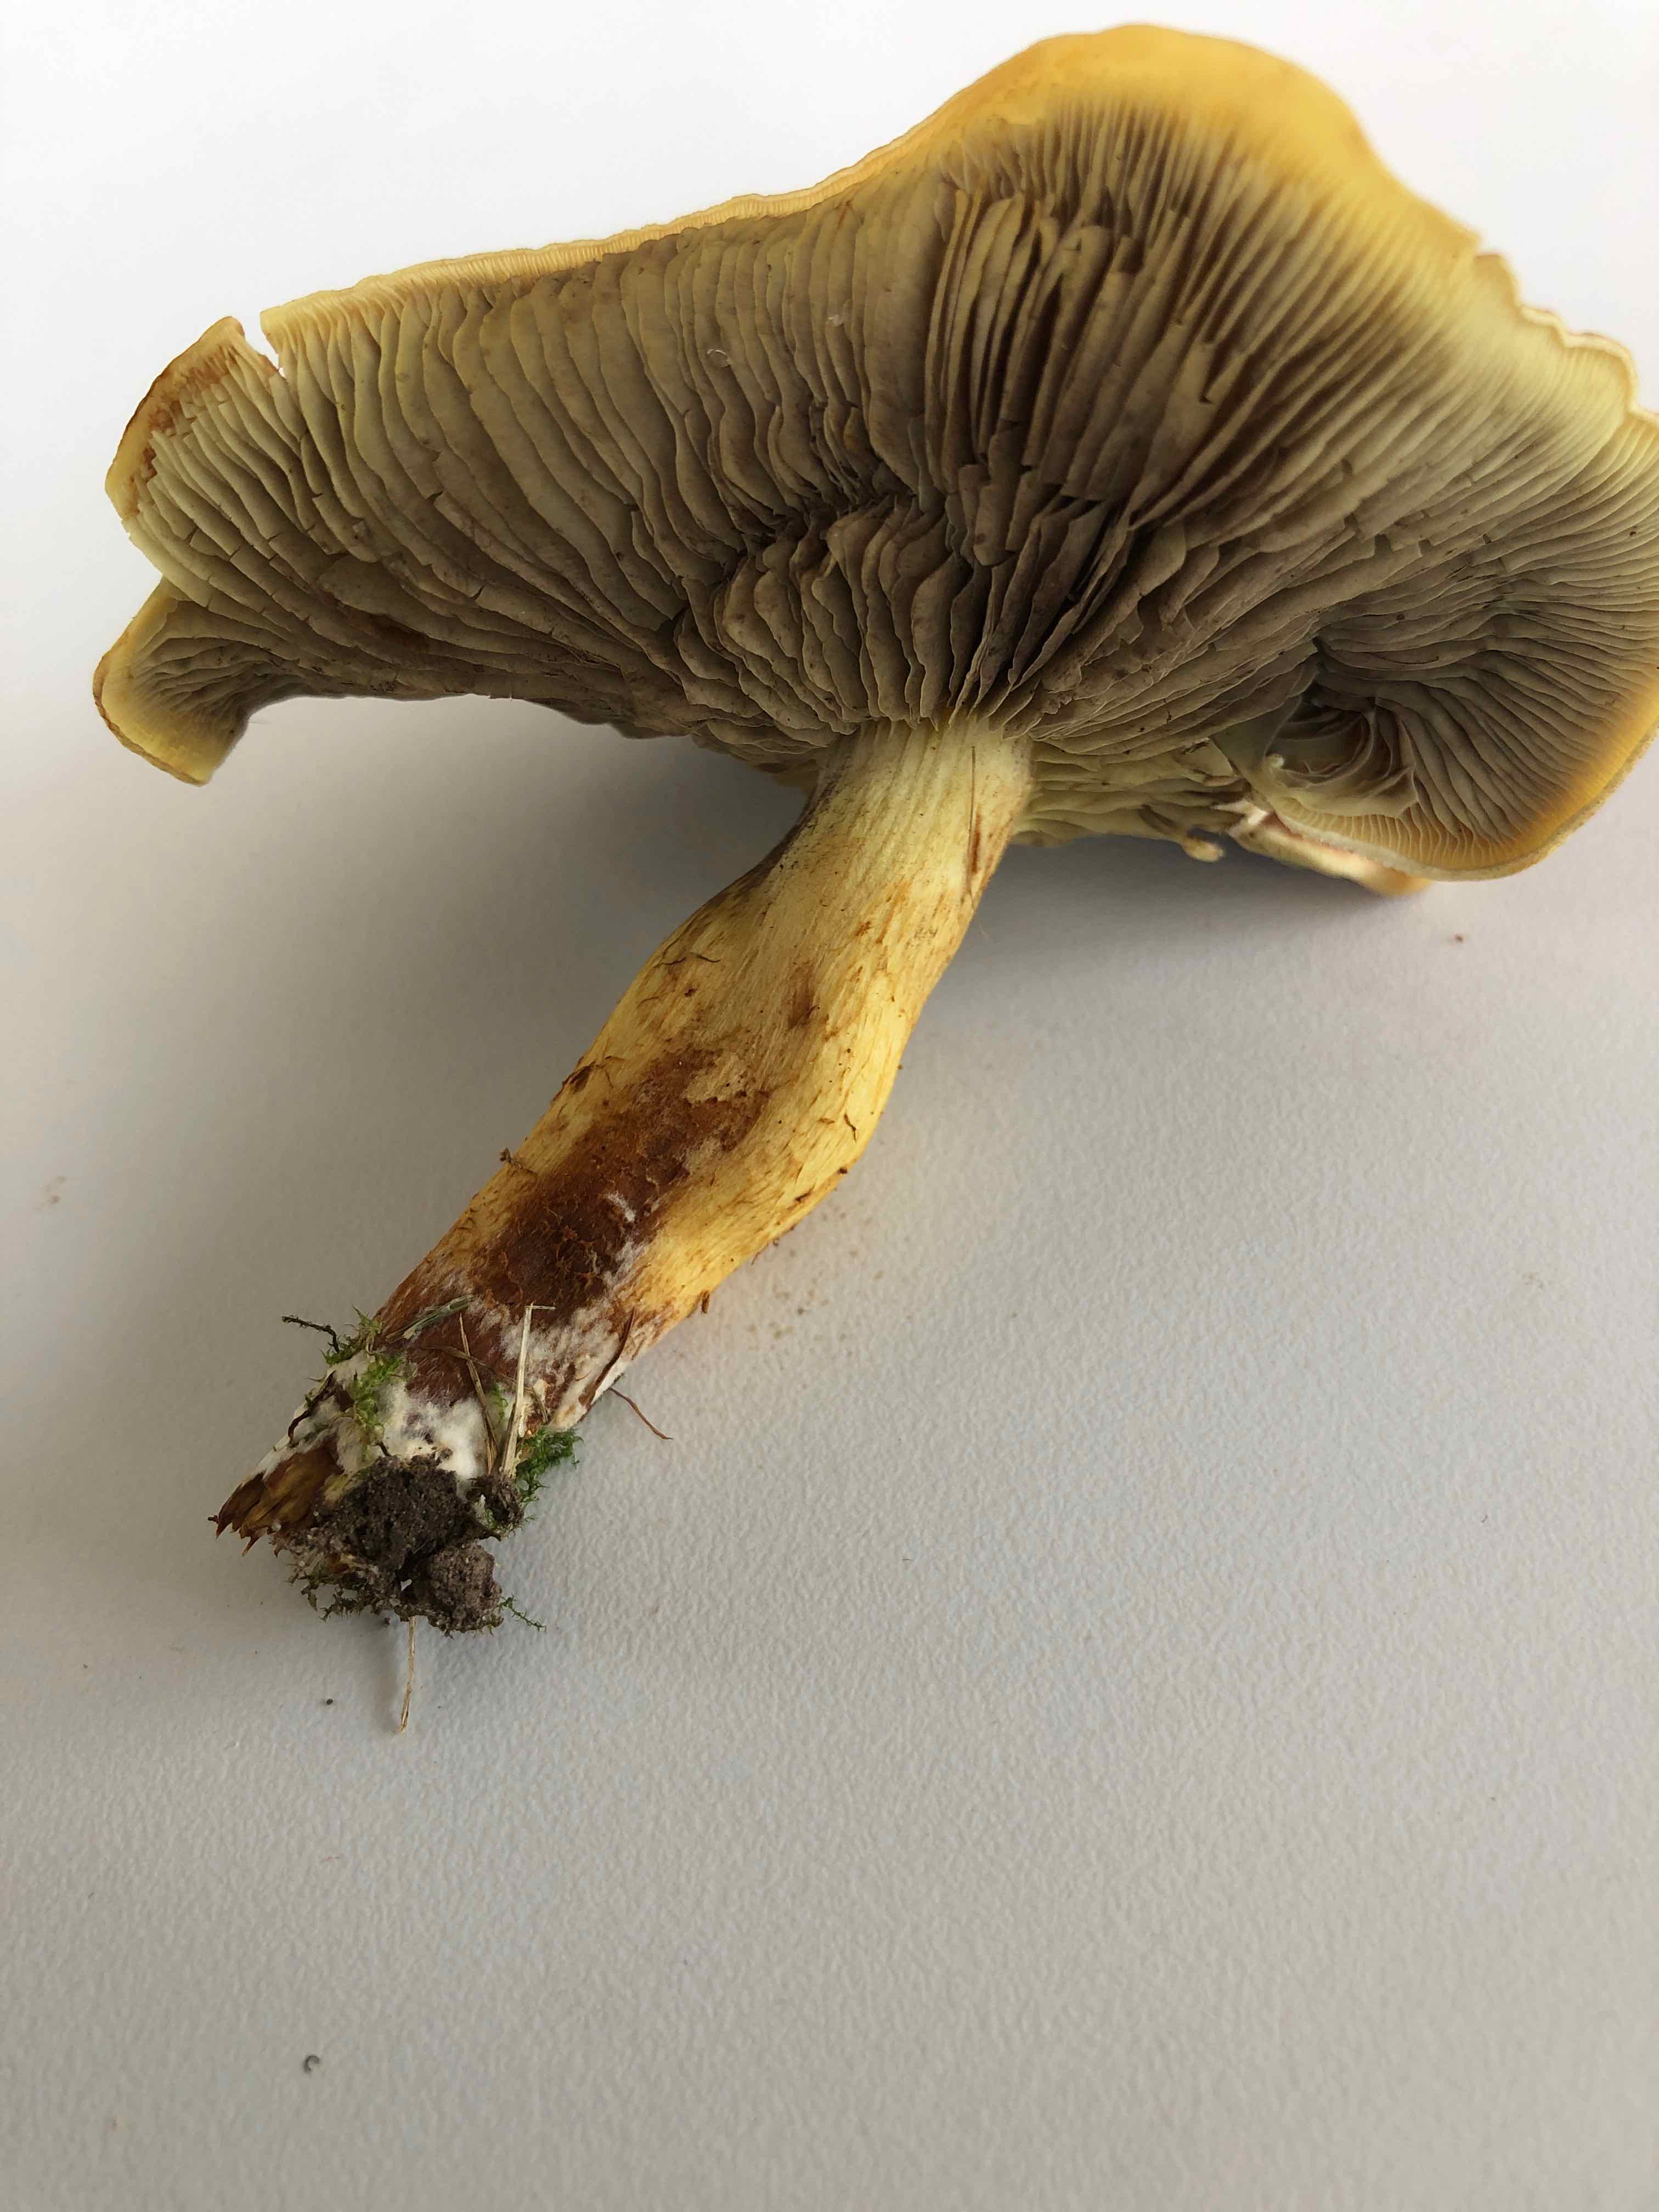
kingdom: Fungi
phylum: Basidiomycota
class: Agaricomycetes
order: Agaricales
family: Strophariaceae
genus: Hypholoma
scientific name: Hypholoma fasciculare
